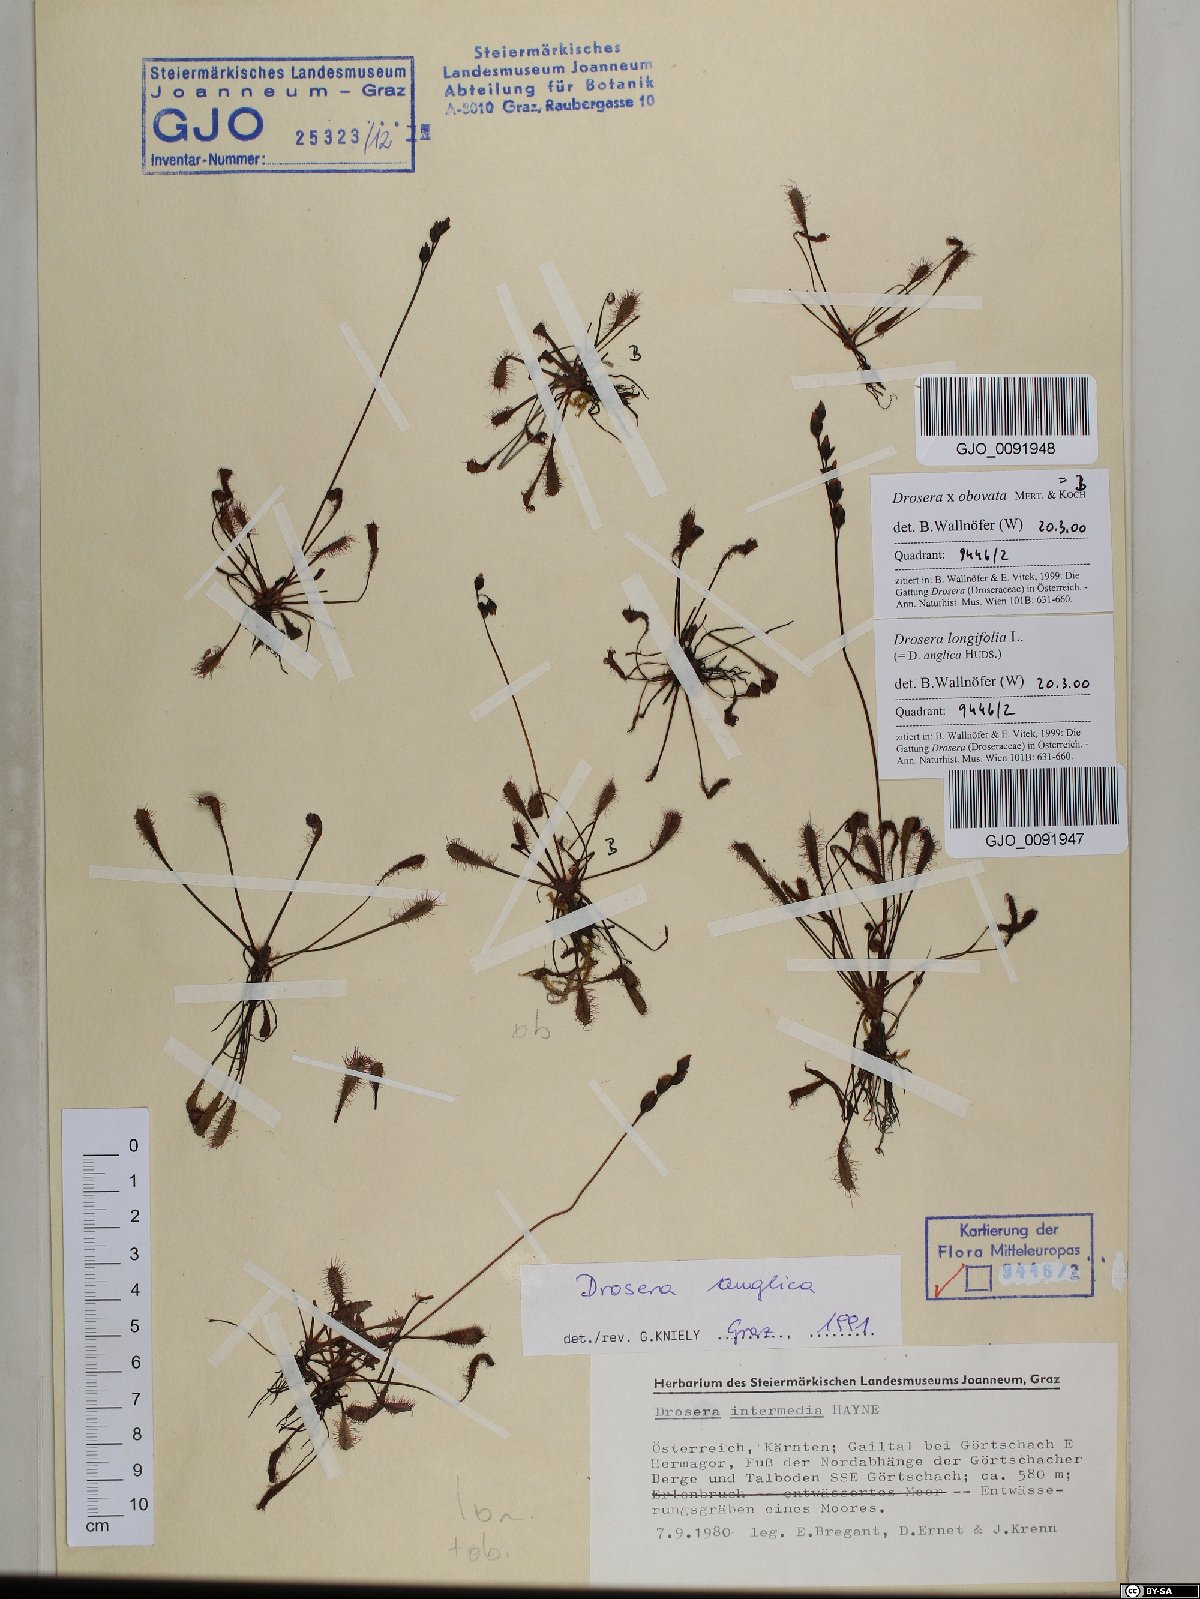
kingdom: Plantae
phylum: Tracheophyta
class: Magnoliopsida
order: Caryophyllales
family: Droseraceae
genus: Drosera
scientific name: Drosera anglica
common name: Great sundew
